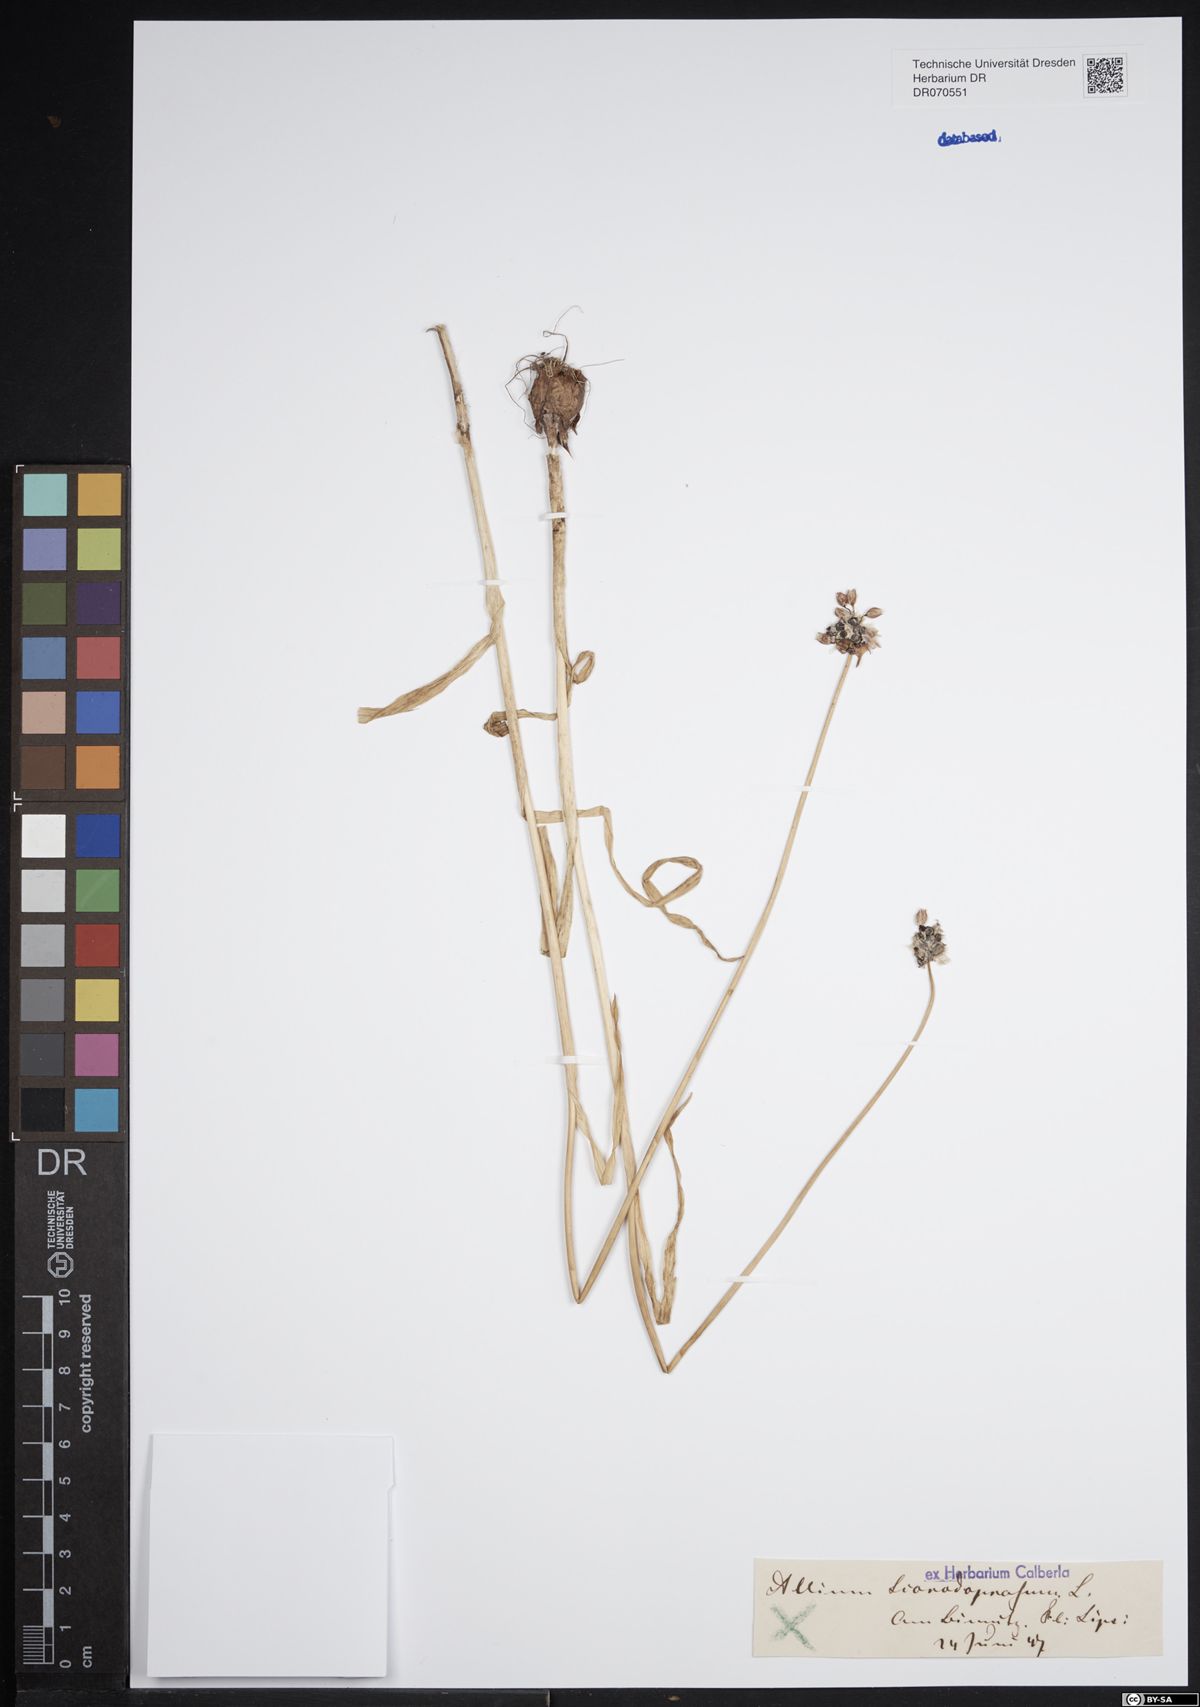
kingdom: Plantae
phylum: Tracheophyta
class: Liliopsida
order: Asparagales
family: Amaryllidaceae
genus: Allium
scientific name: Allium scorodoprasum
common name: Sand leek
